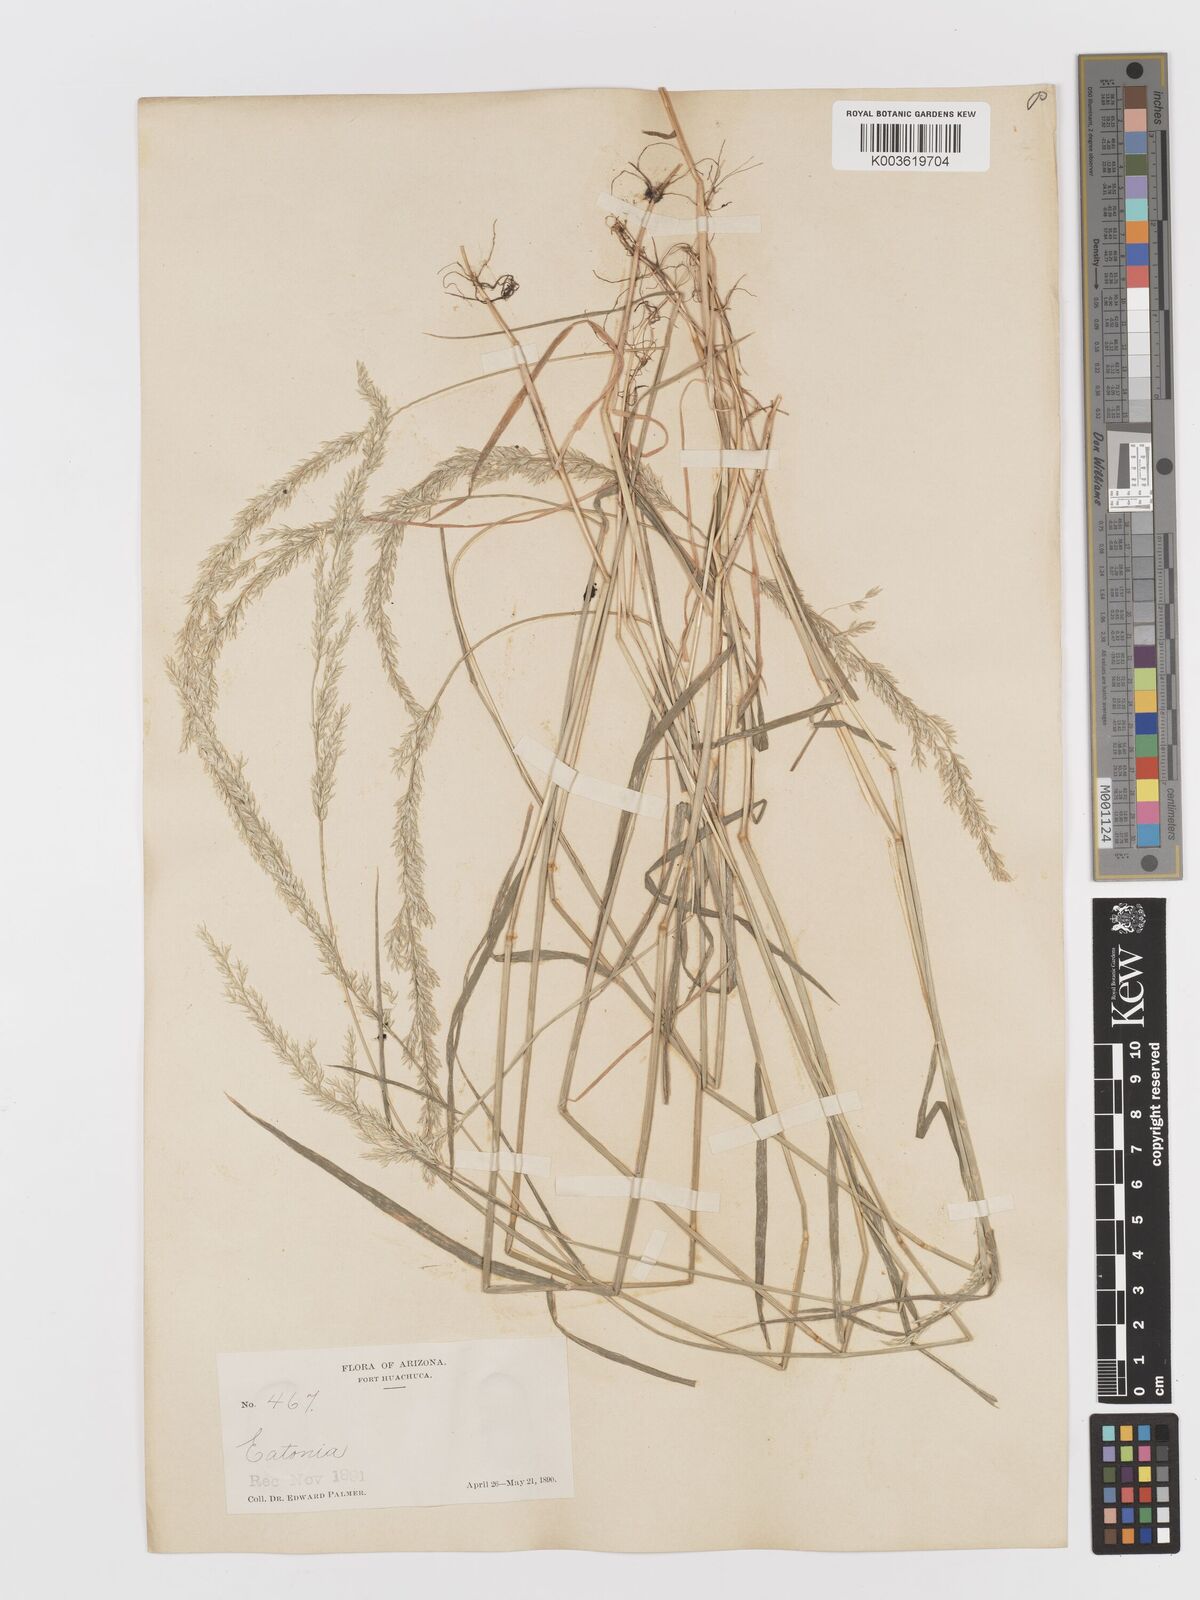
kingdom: Plantae
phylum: Tracheophyta
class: Liliopsida
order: Poales
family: Poaceae
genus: Sphenopholis
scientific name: Sphenopholis obtusata
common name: Prairie grass
